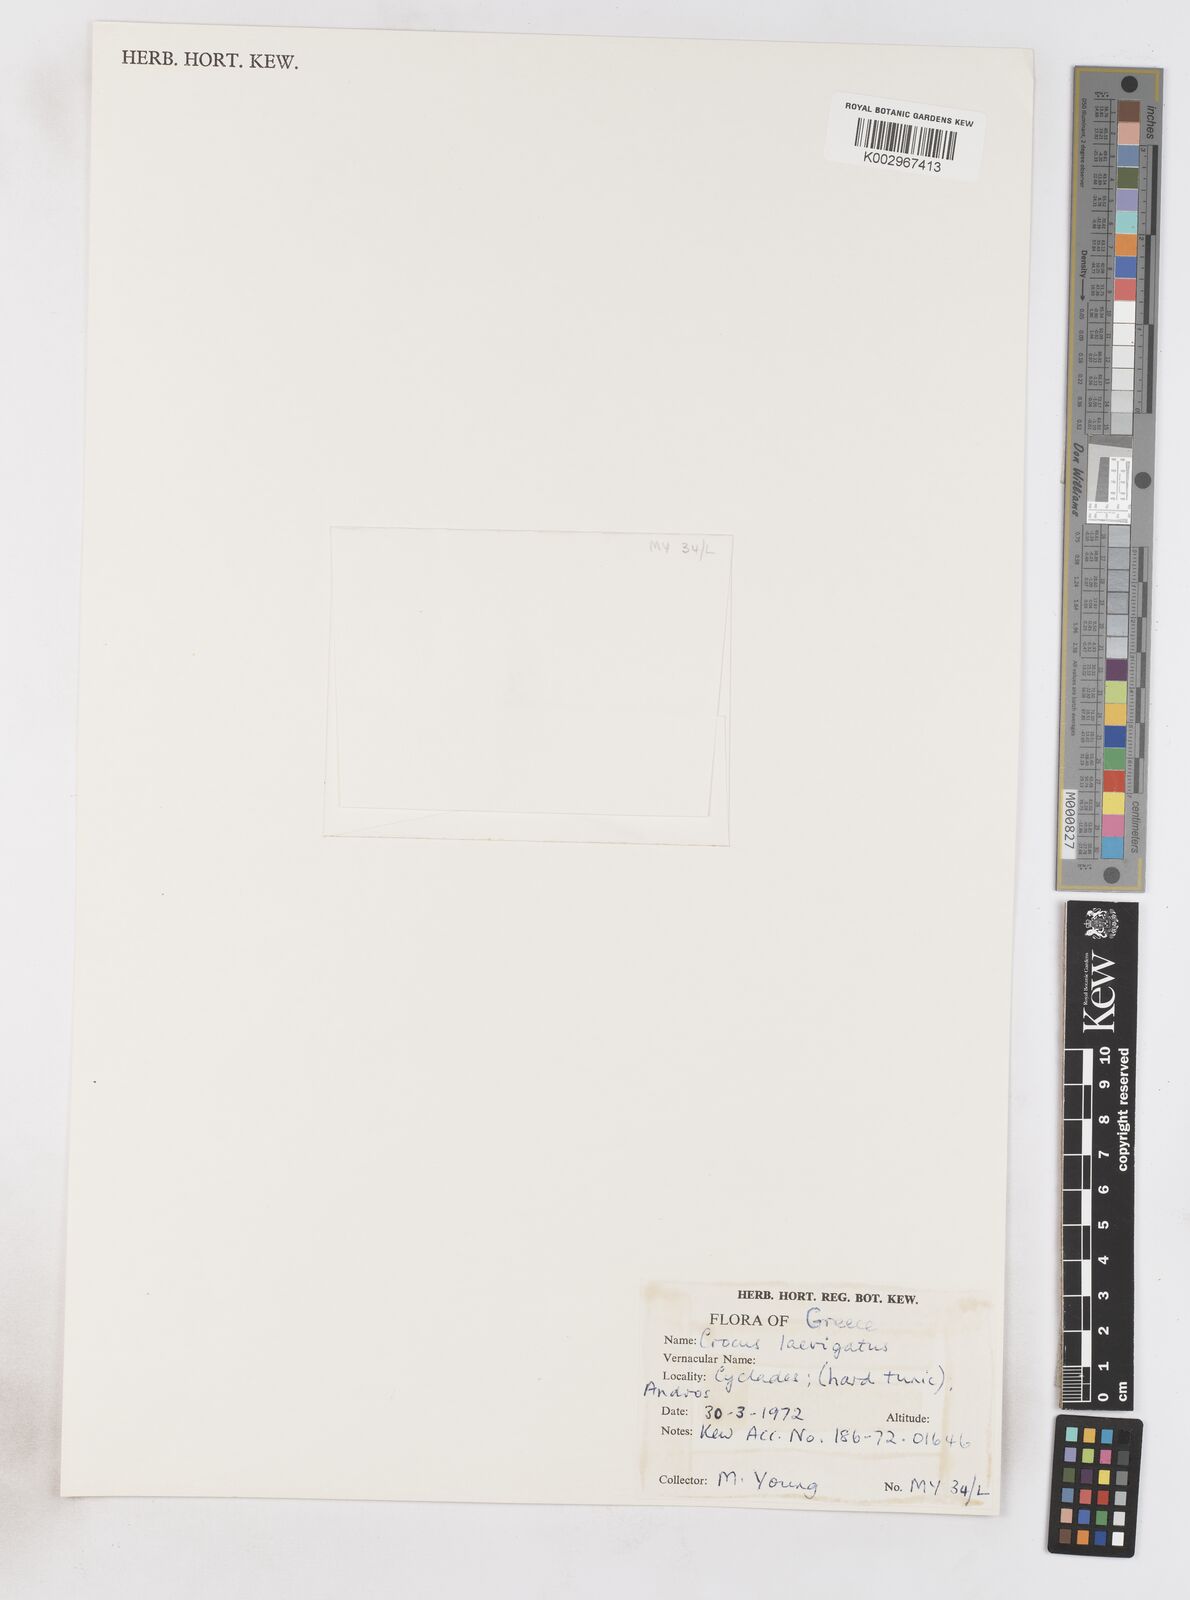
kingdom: Plantae
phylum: Tracheophyta
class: Liliopsida
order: Asparagales
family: Iridaceae
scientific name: Iridaceae
